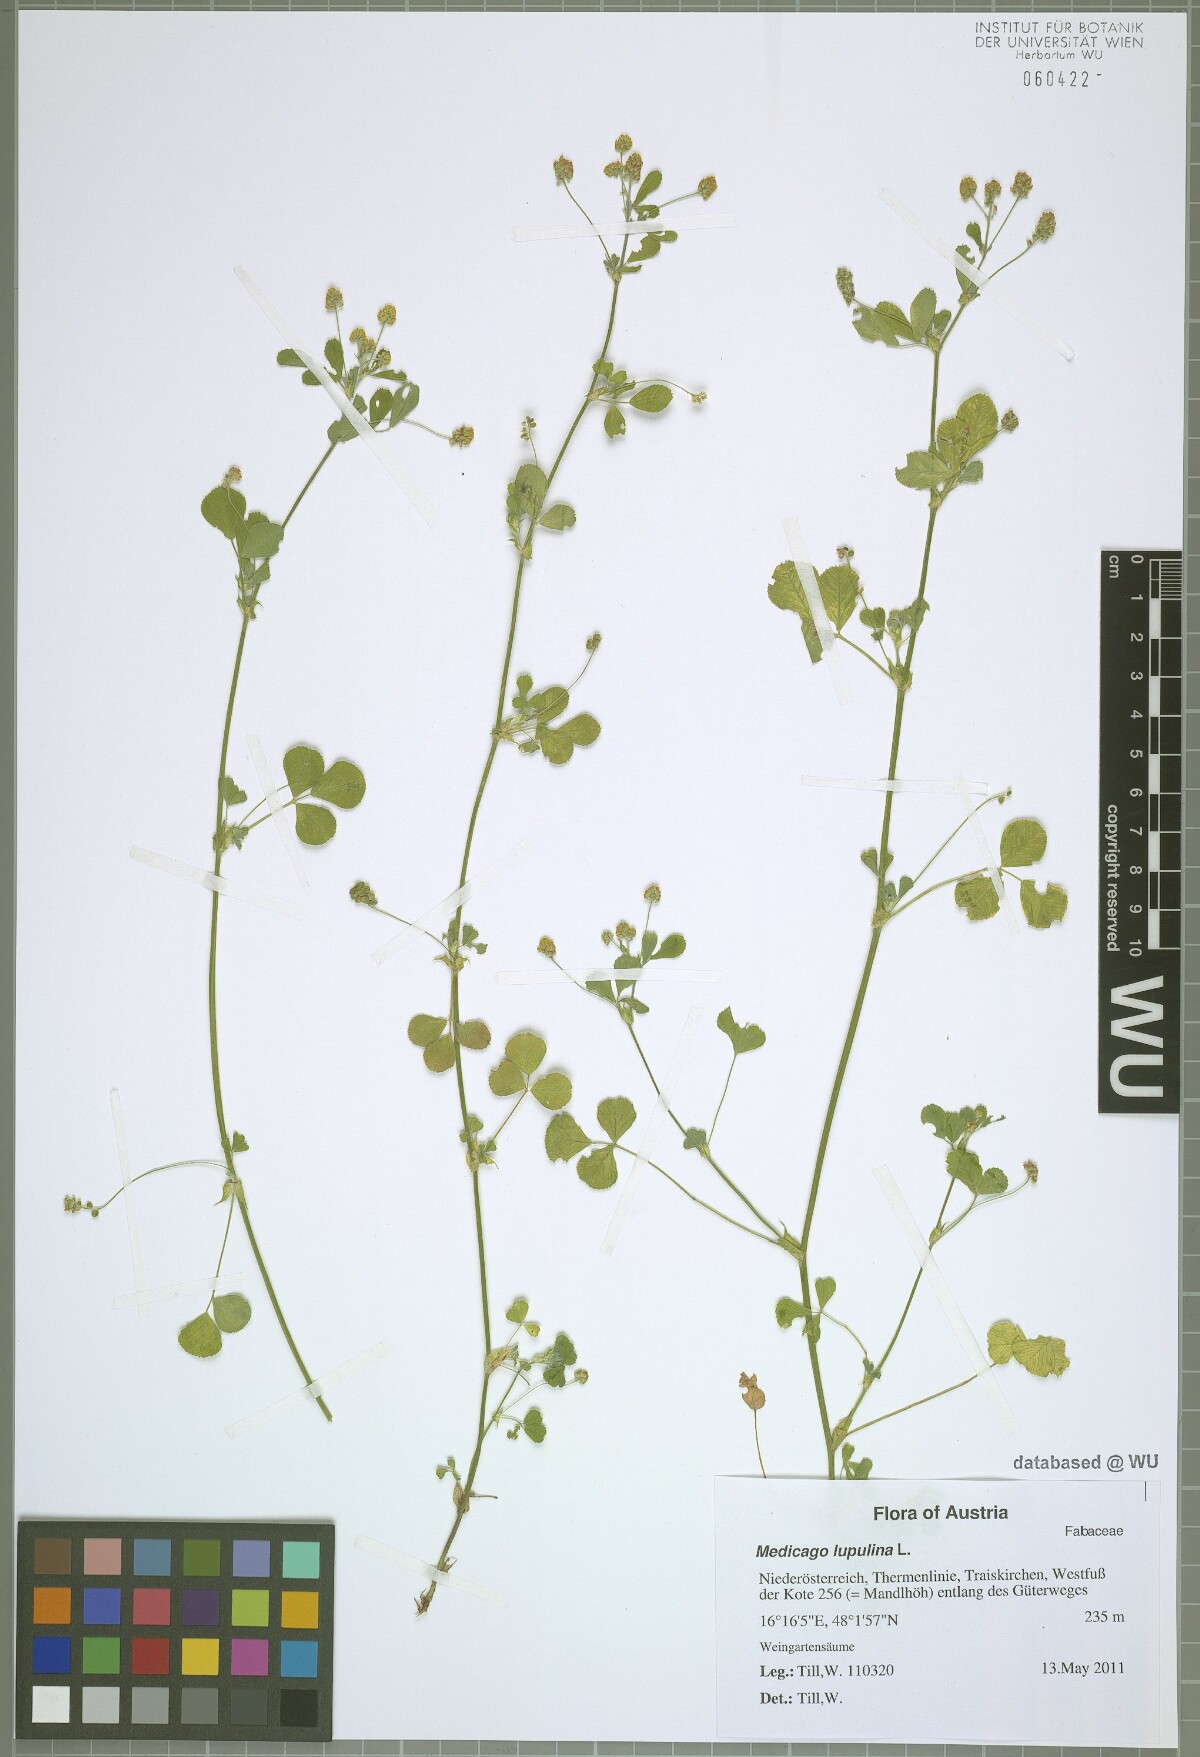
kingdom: Plantae
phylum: Tracheophyta
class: Magnoliopsida
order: Fabales
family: Fabaceae
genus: Medicago
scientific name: Medicago lupulina
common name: Black medick
